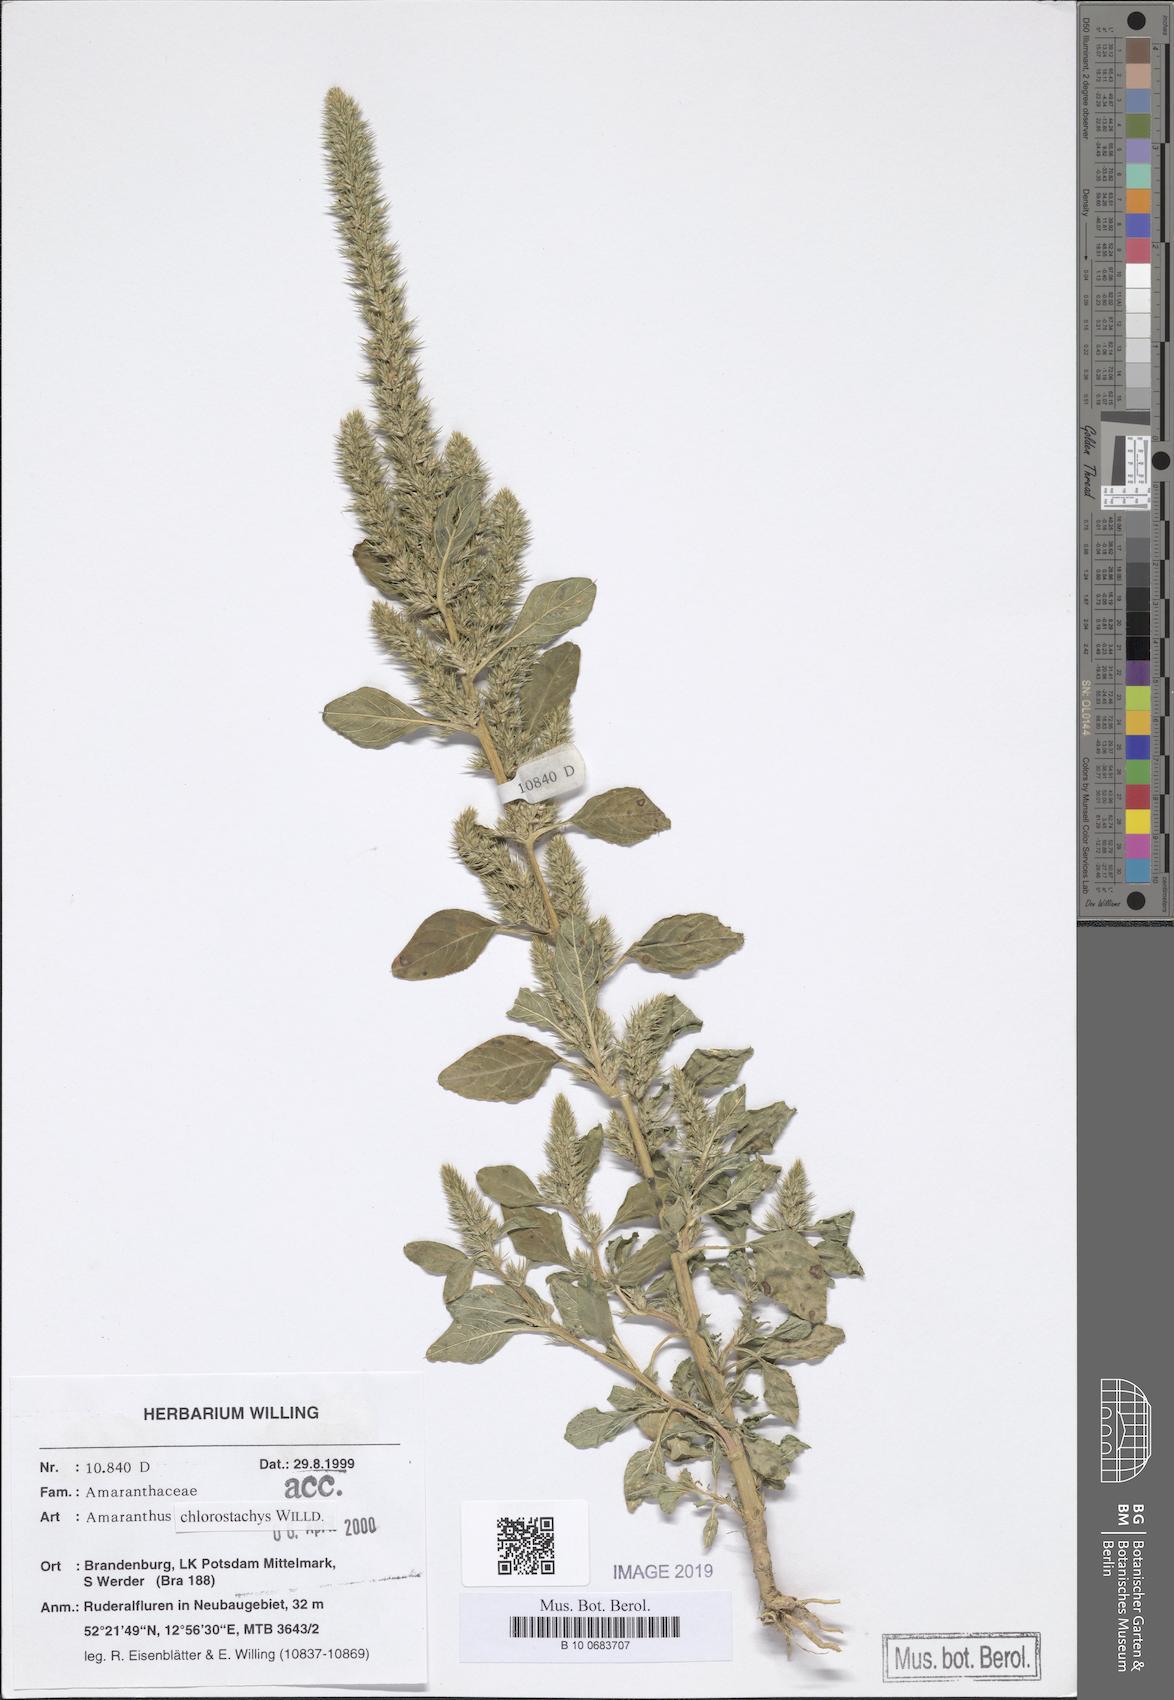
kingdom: Plantae
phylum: Tracheophyta
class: Magnoliopsida
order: Caryophyllales
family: Amaranthaceae
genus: Amaranthus
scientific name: Amaranthus
